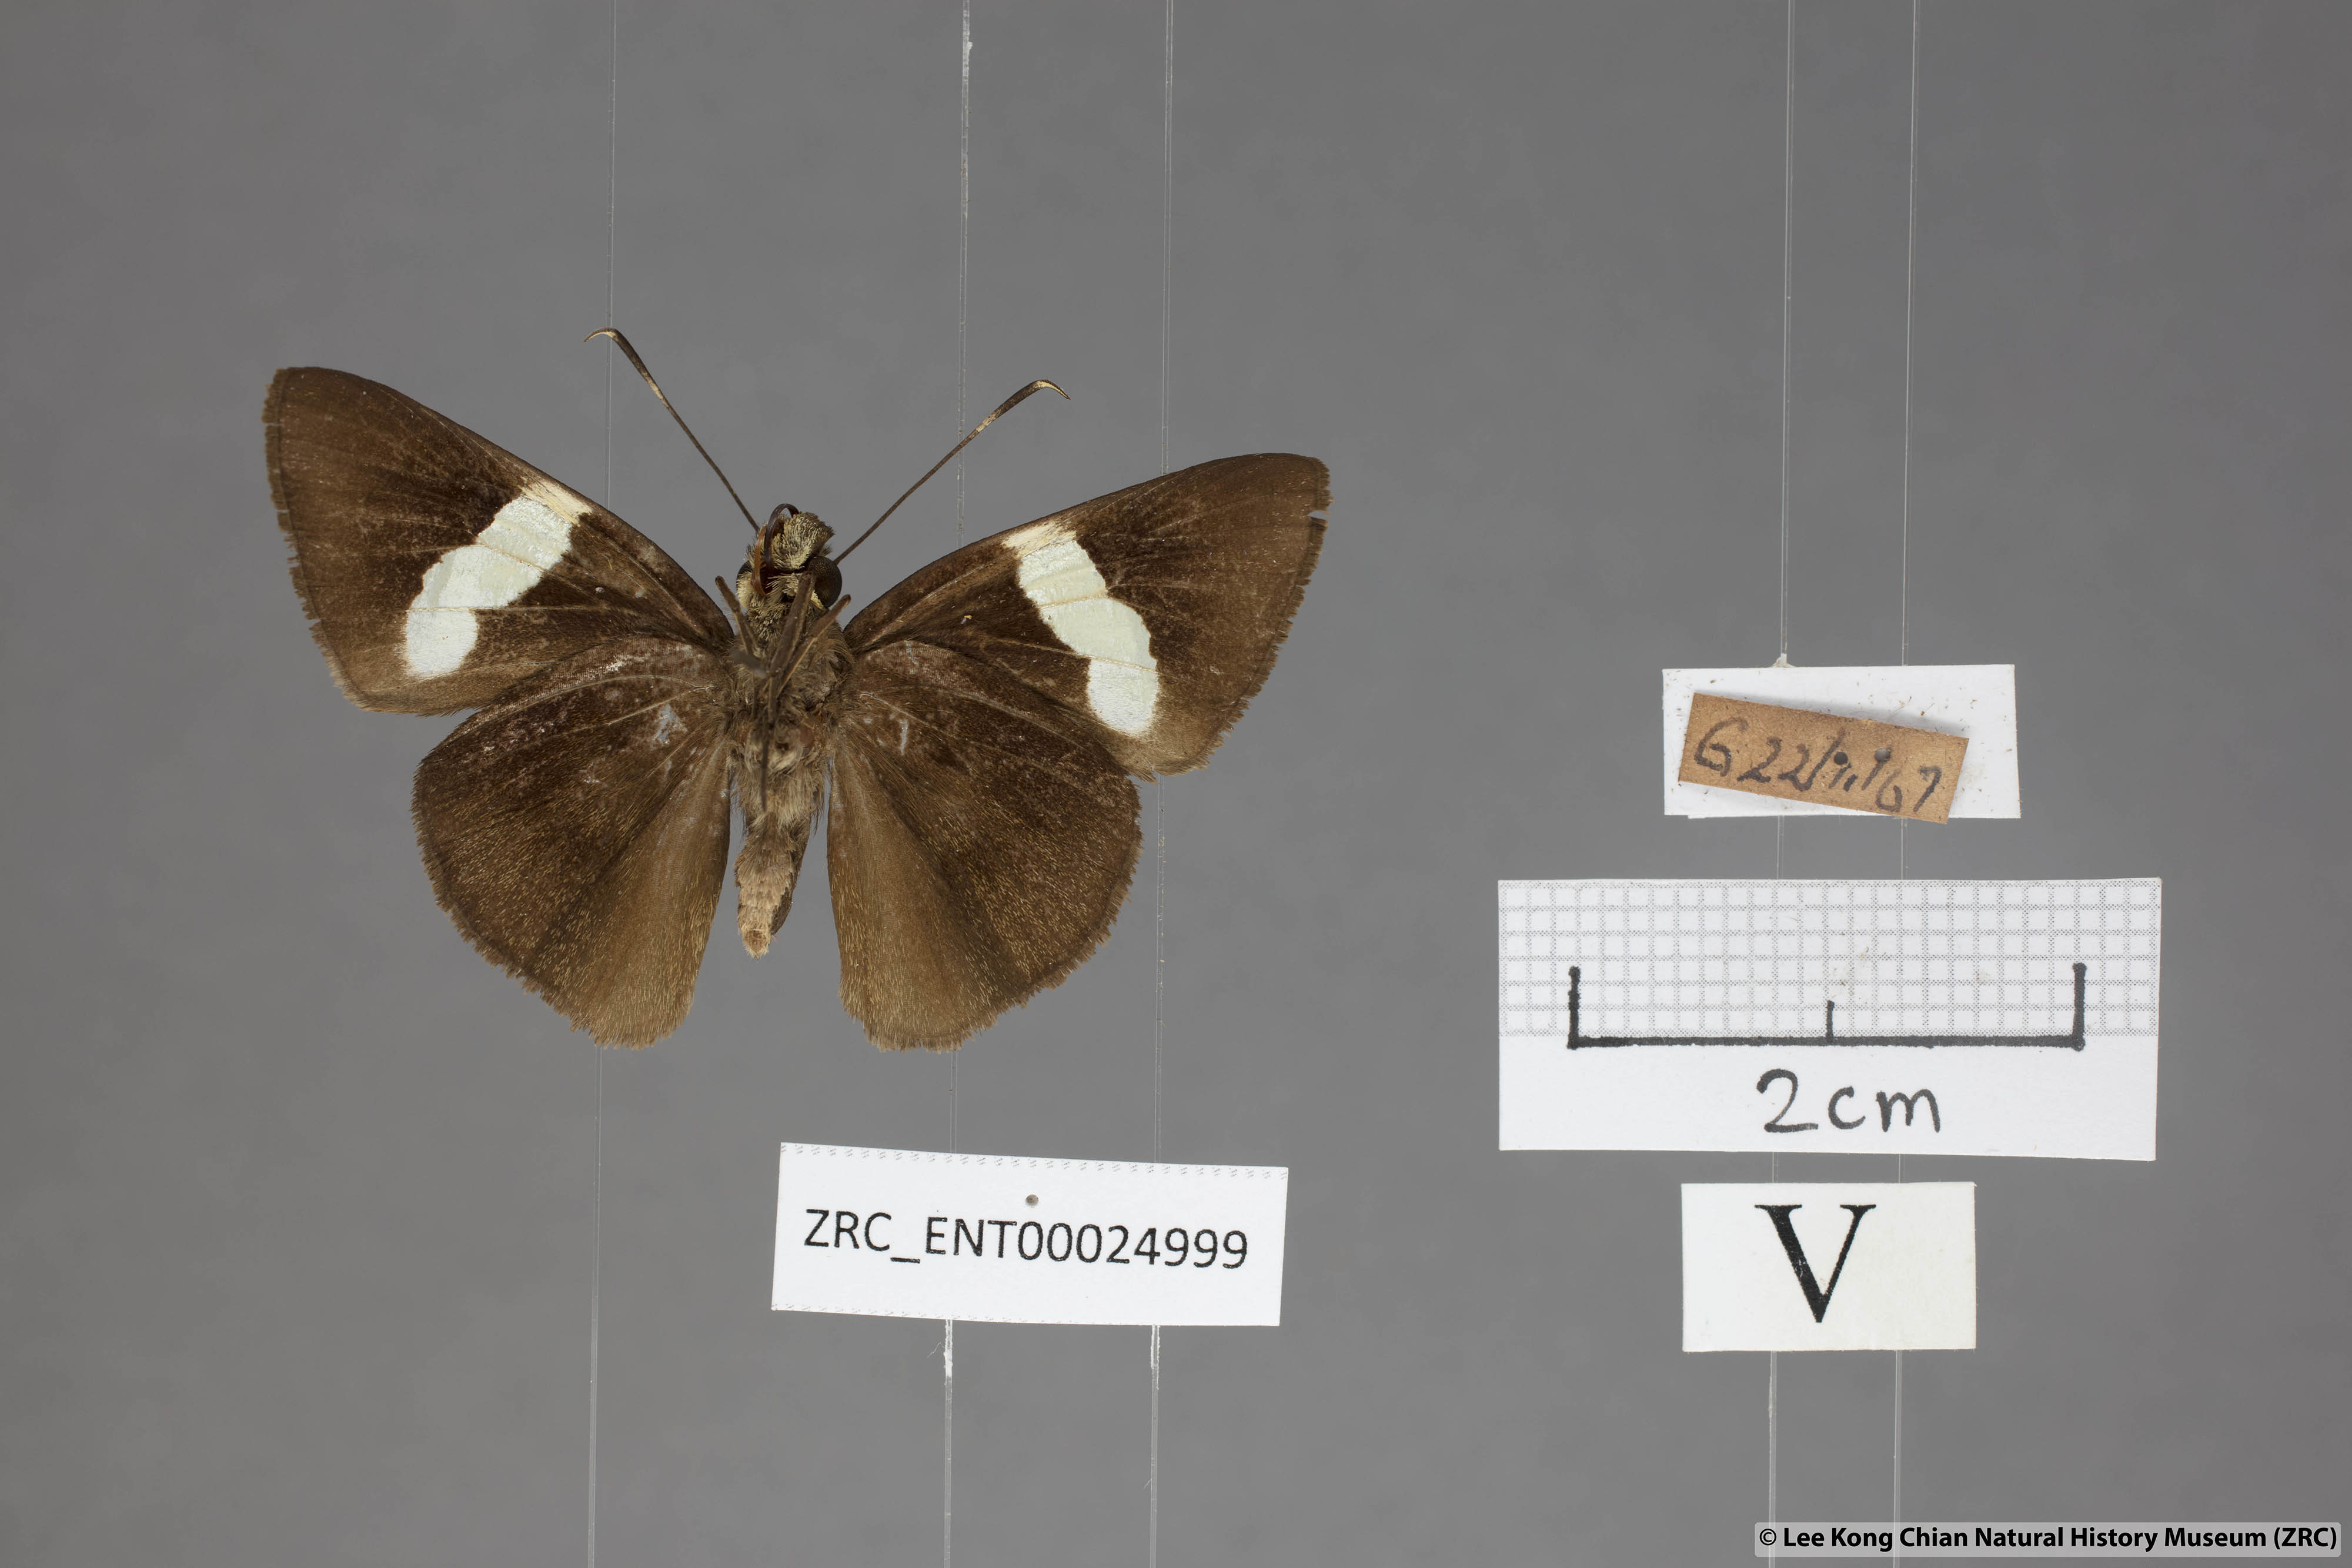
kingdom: Animalia
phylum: Arthropoda
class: Insecta
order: Lepidoptera
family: Hesperiidae
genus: Notocrypta
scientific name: Notocrypta clavata
